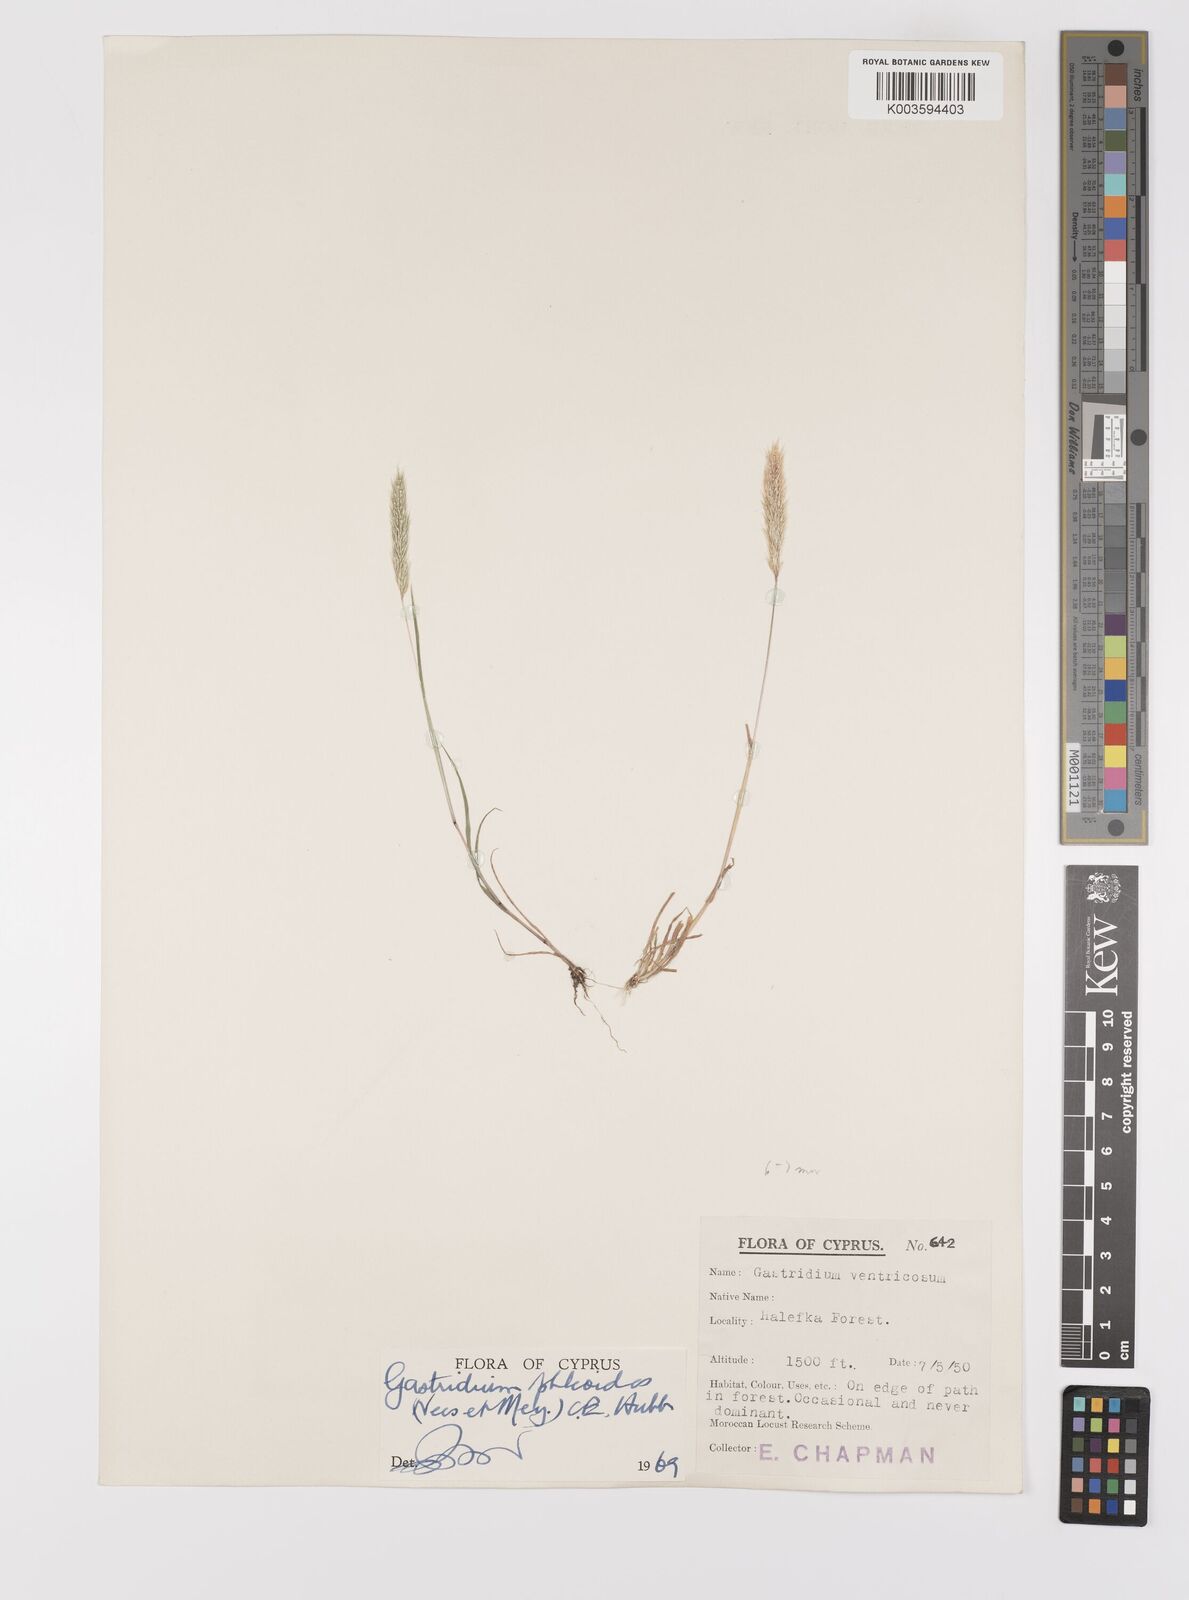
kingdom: Plantae
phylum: Tracheophyta
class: Liliopsida
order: Poales
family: Poaceae
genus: Gastridium
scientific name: Gastridium phleoides
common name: Nit grass
